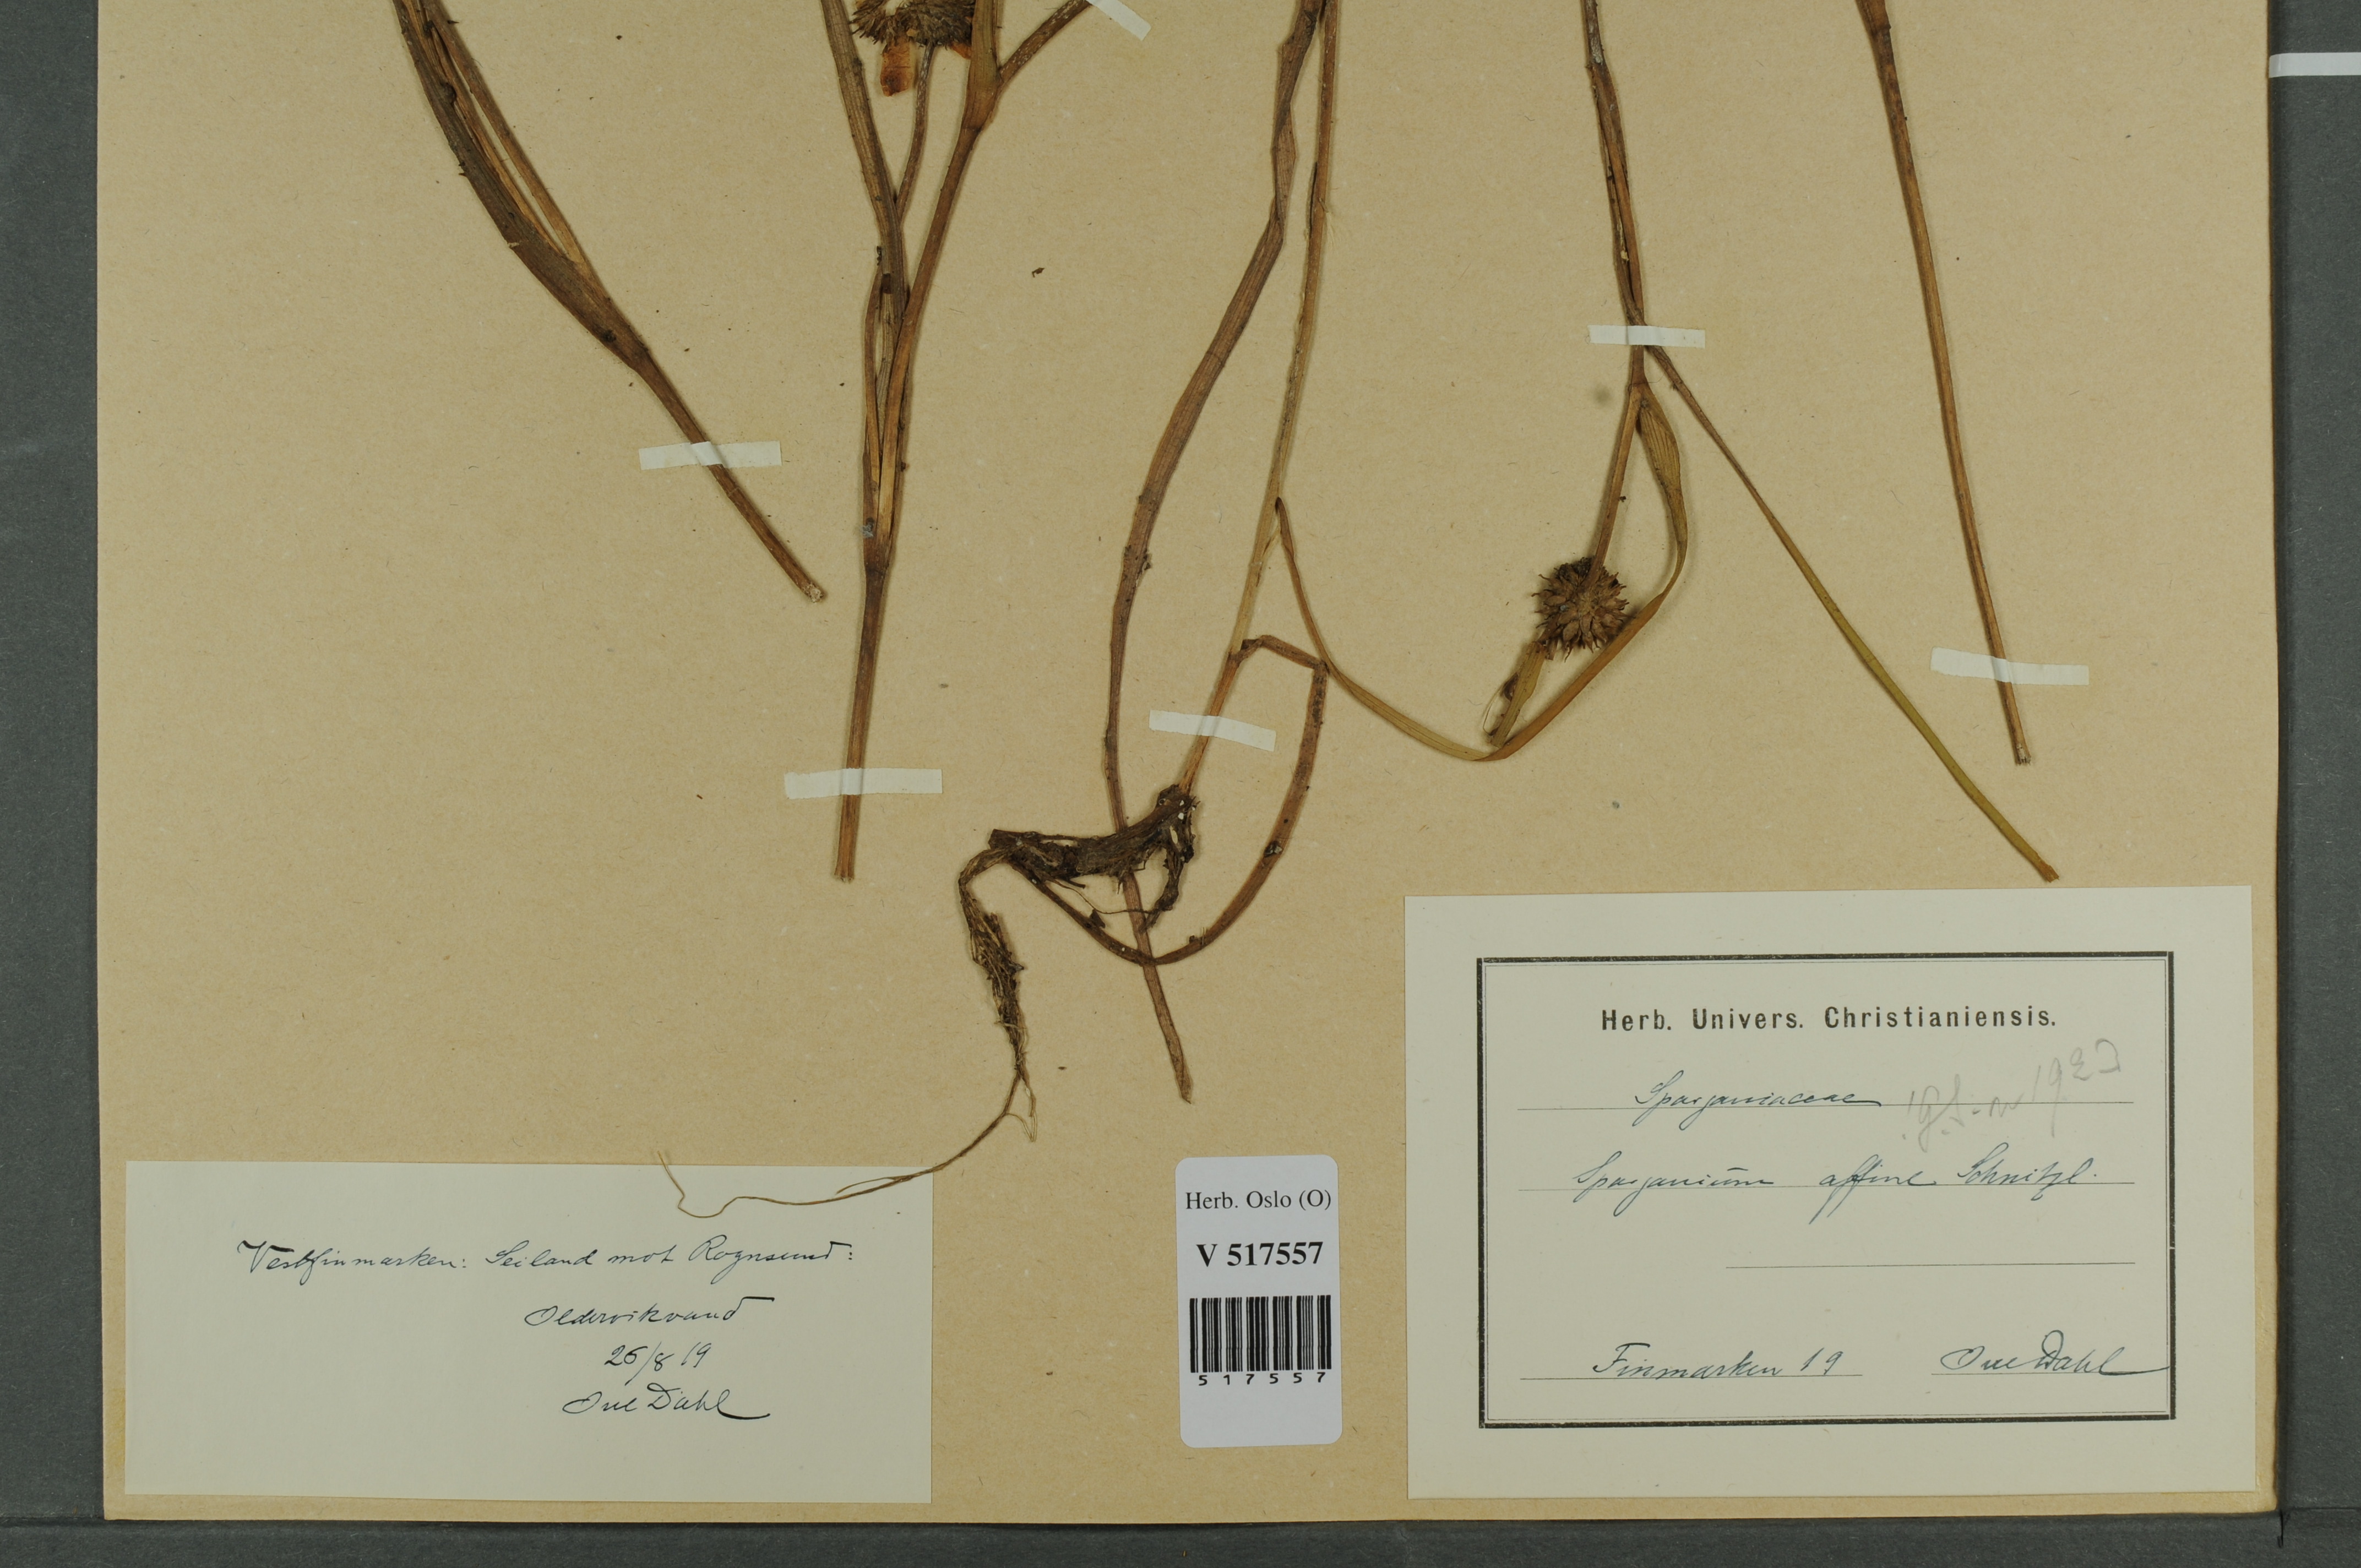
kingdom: Plantae
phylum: Tracheophyta
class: Liliopsida
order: Poales
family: Typhaceae
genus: Sparganium
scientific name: Sparganium angustifolium
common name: Floating bur-reed
